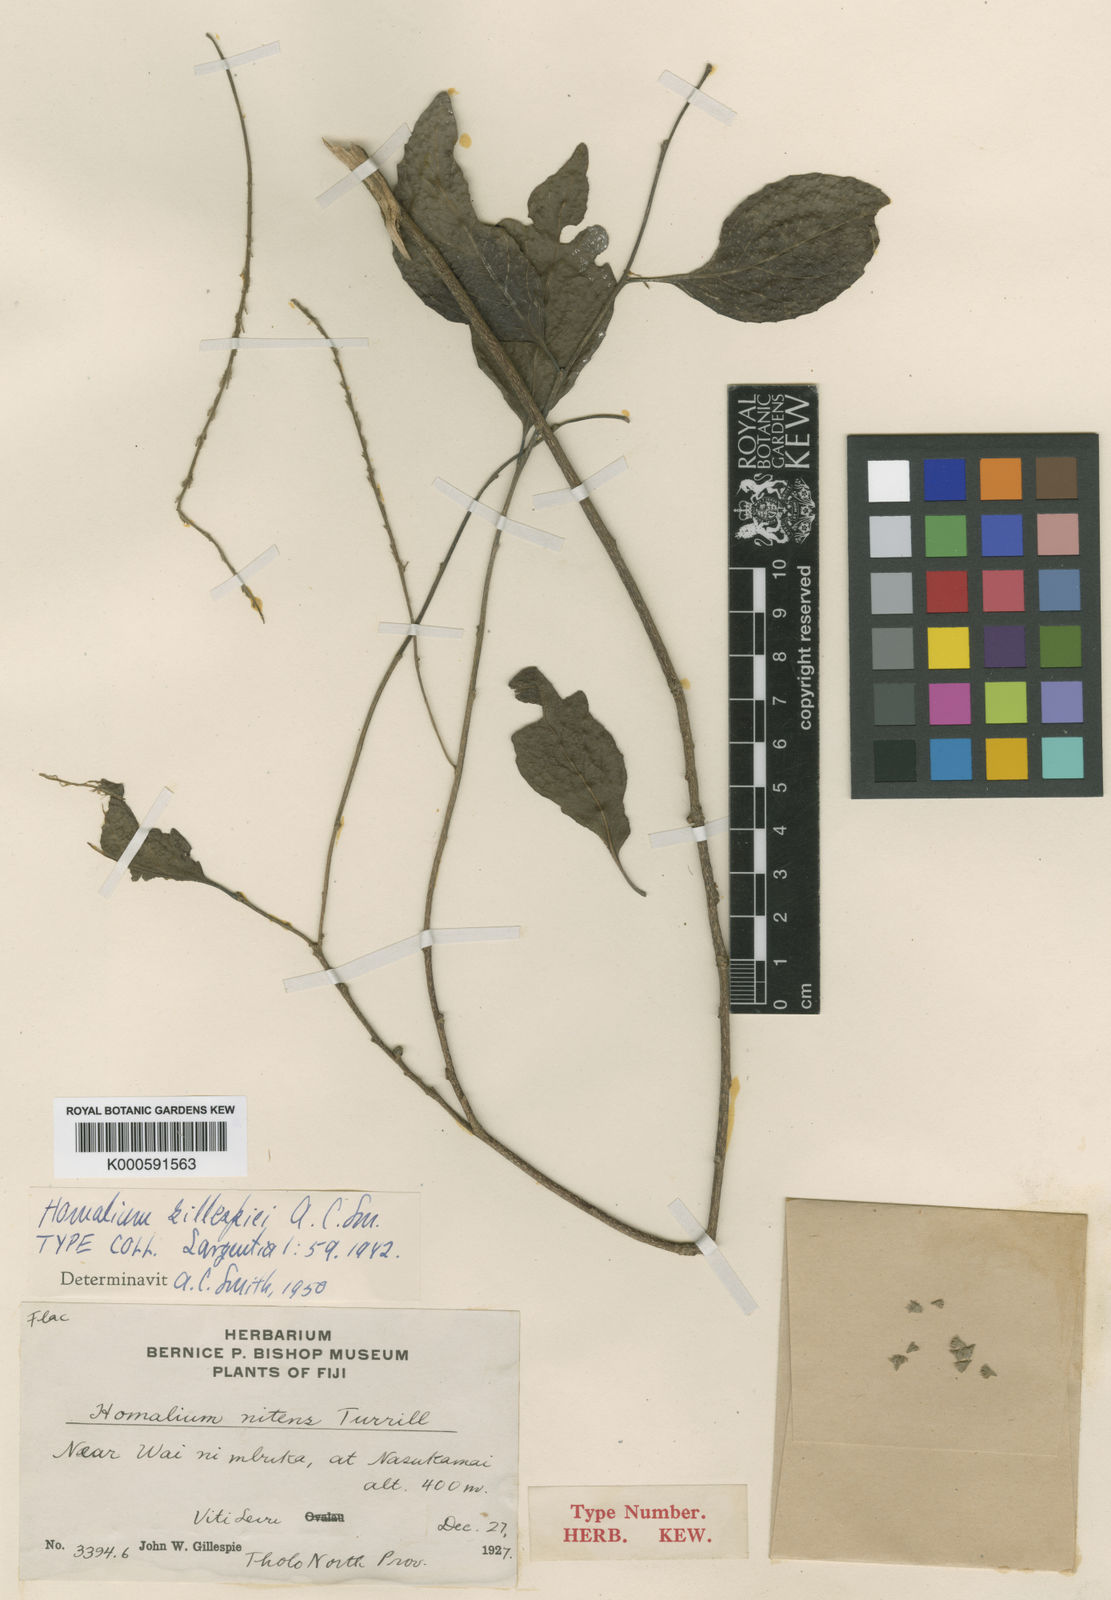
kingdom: Plantae
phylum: Tracheophyta
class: Magnoliopsida
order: Malpighiales
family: Salicaceae
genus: Homalium
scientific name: Homalium vitiense
